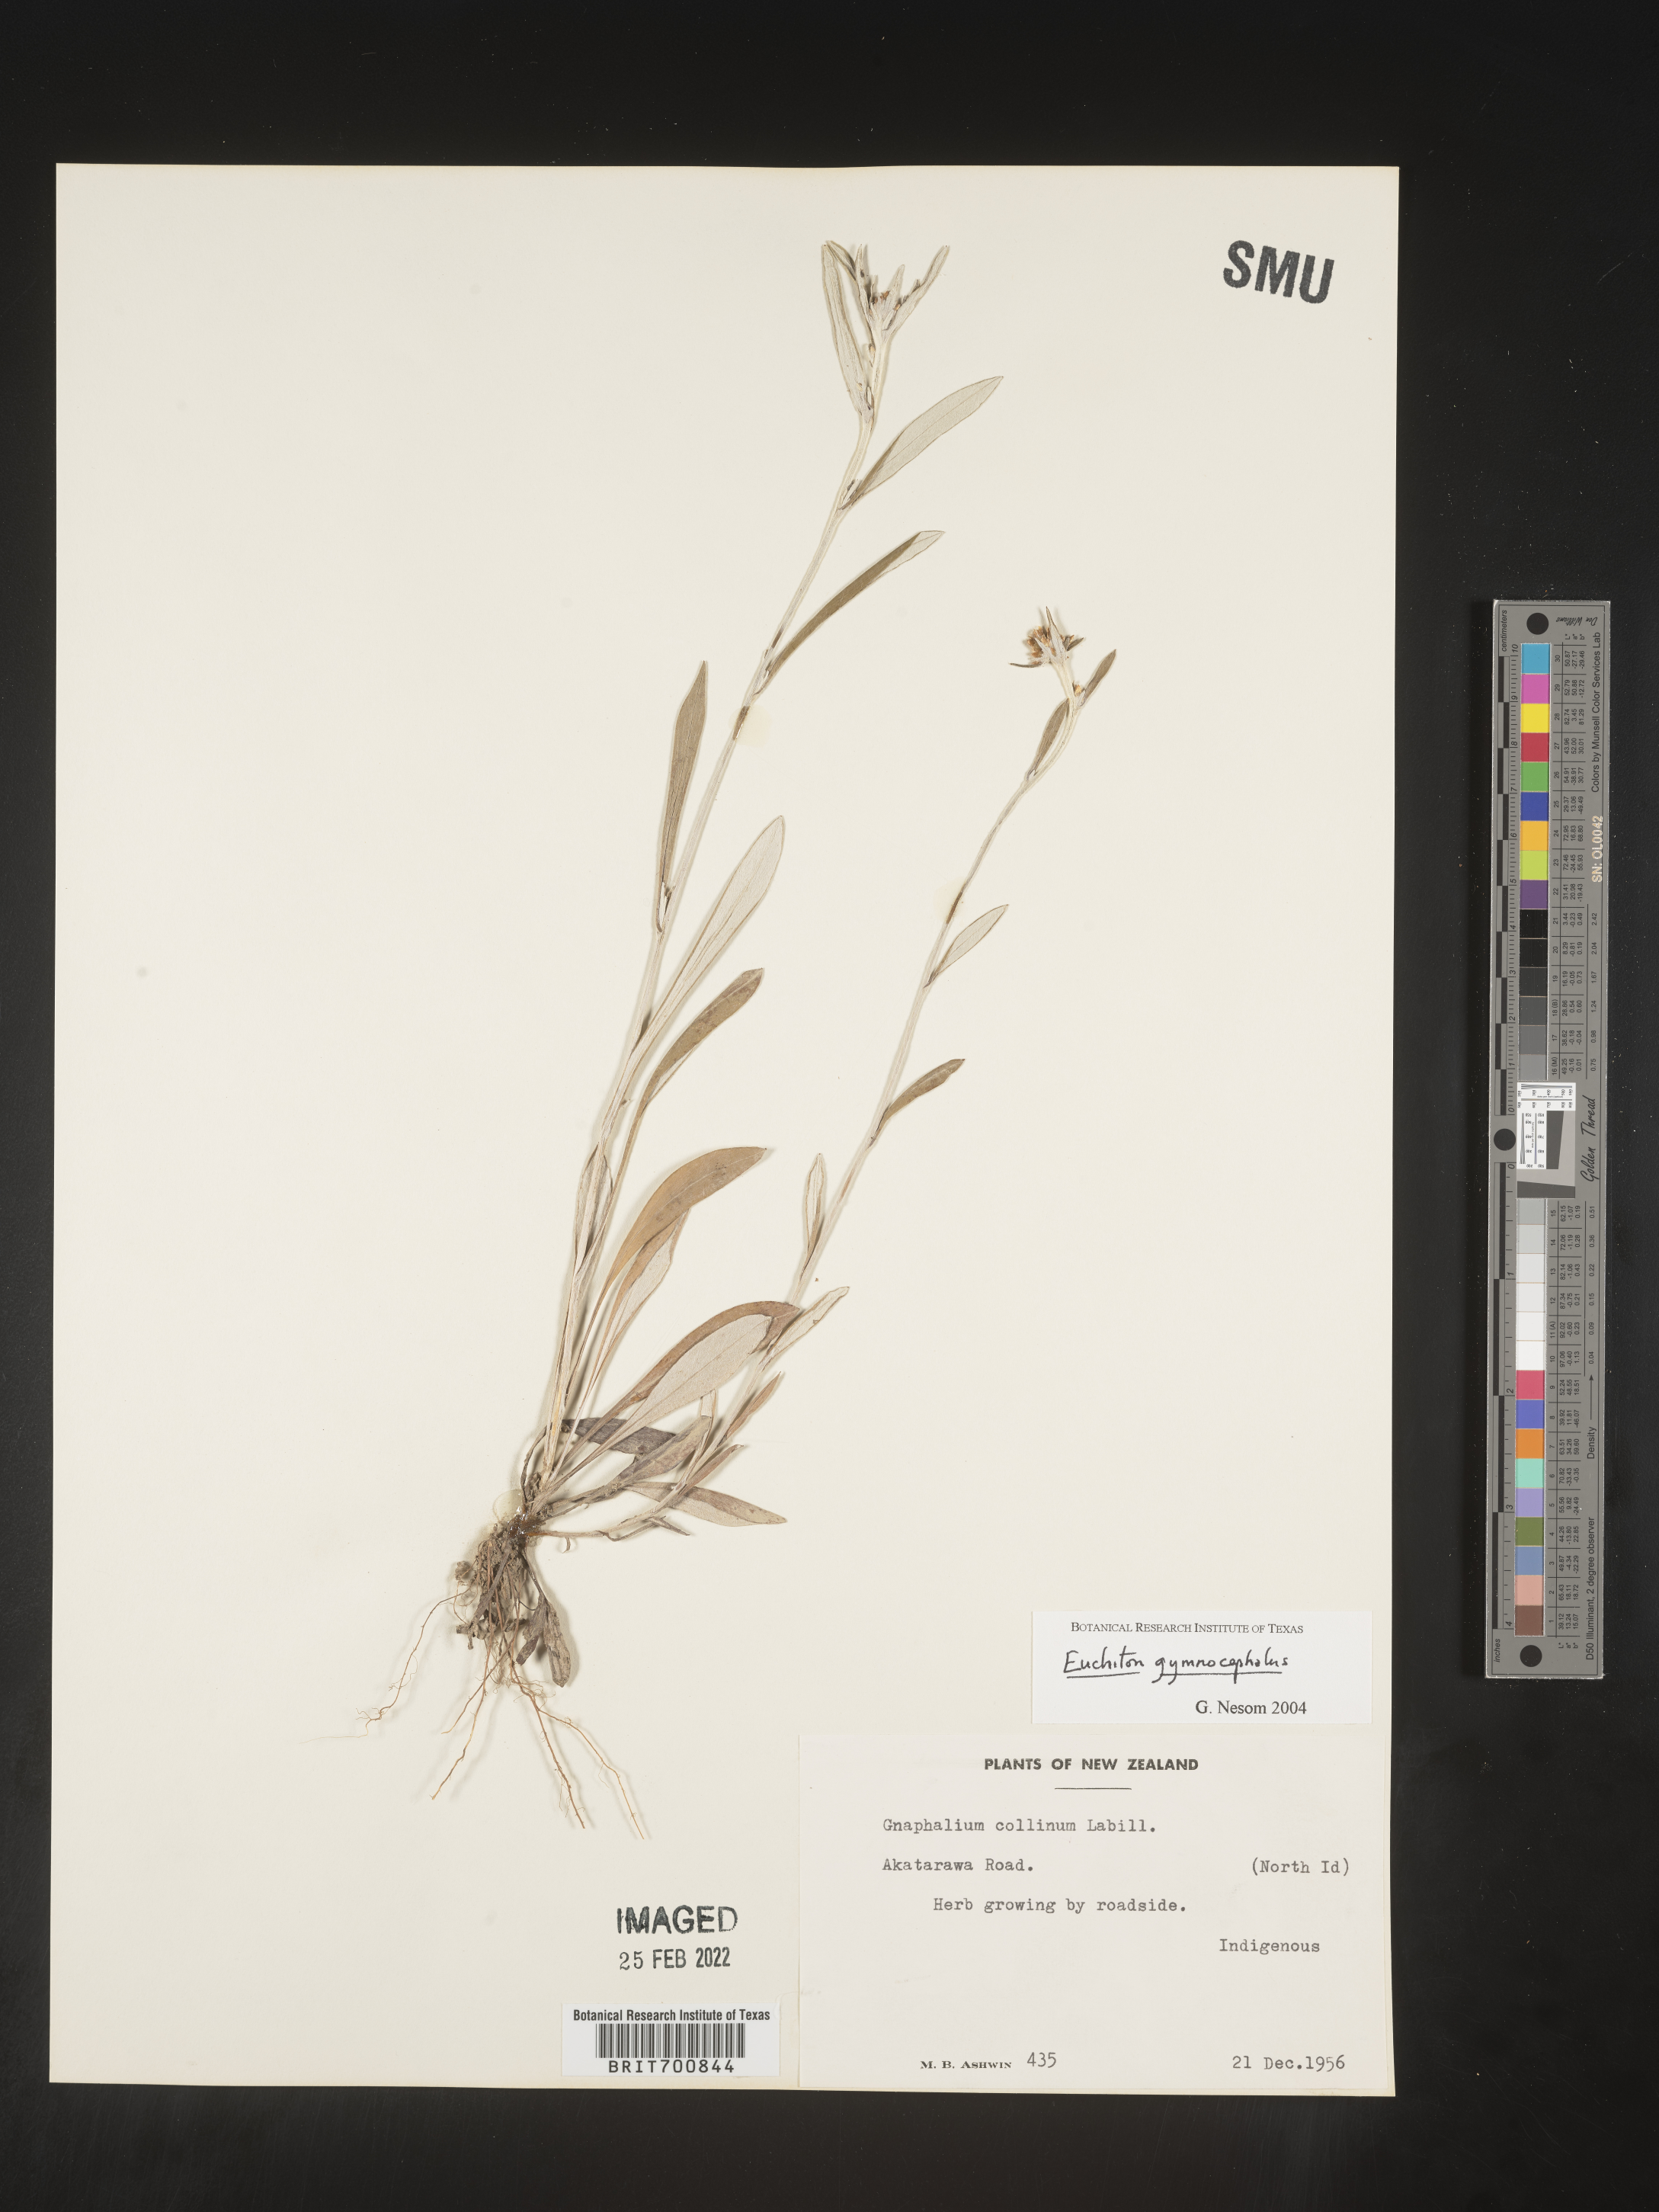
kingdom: Plantae
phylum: Tracheophyta
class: Magnoliopsida
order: Asterales
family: Asteraceae
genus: Euchiton
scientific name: Euchiton
